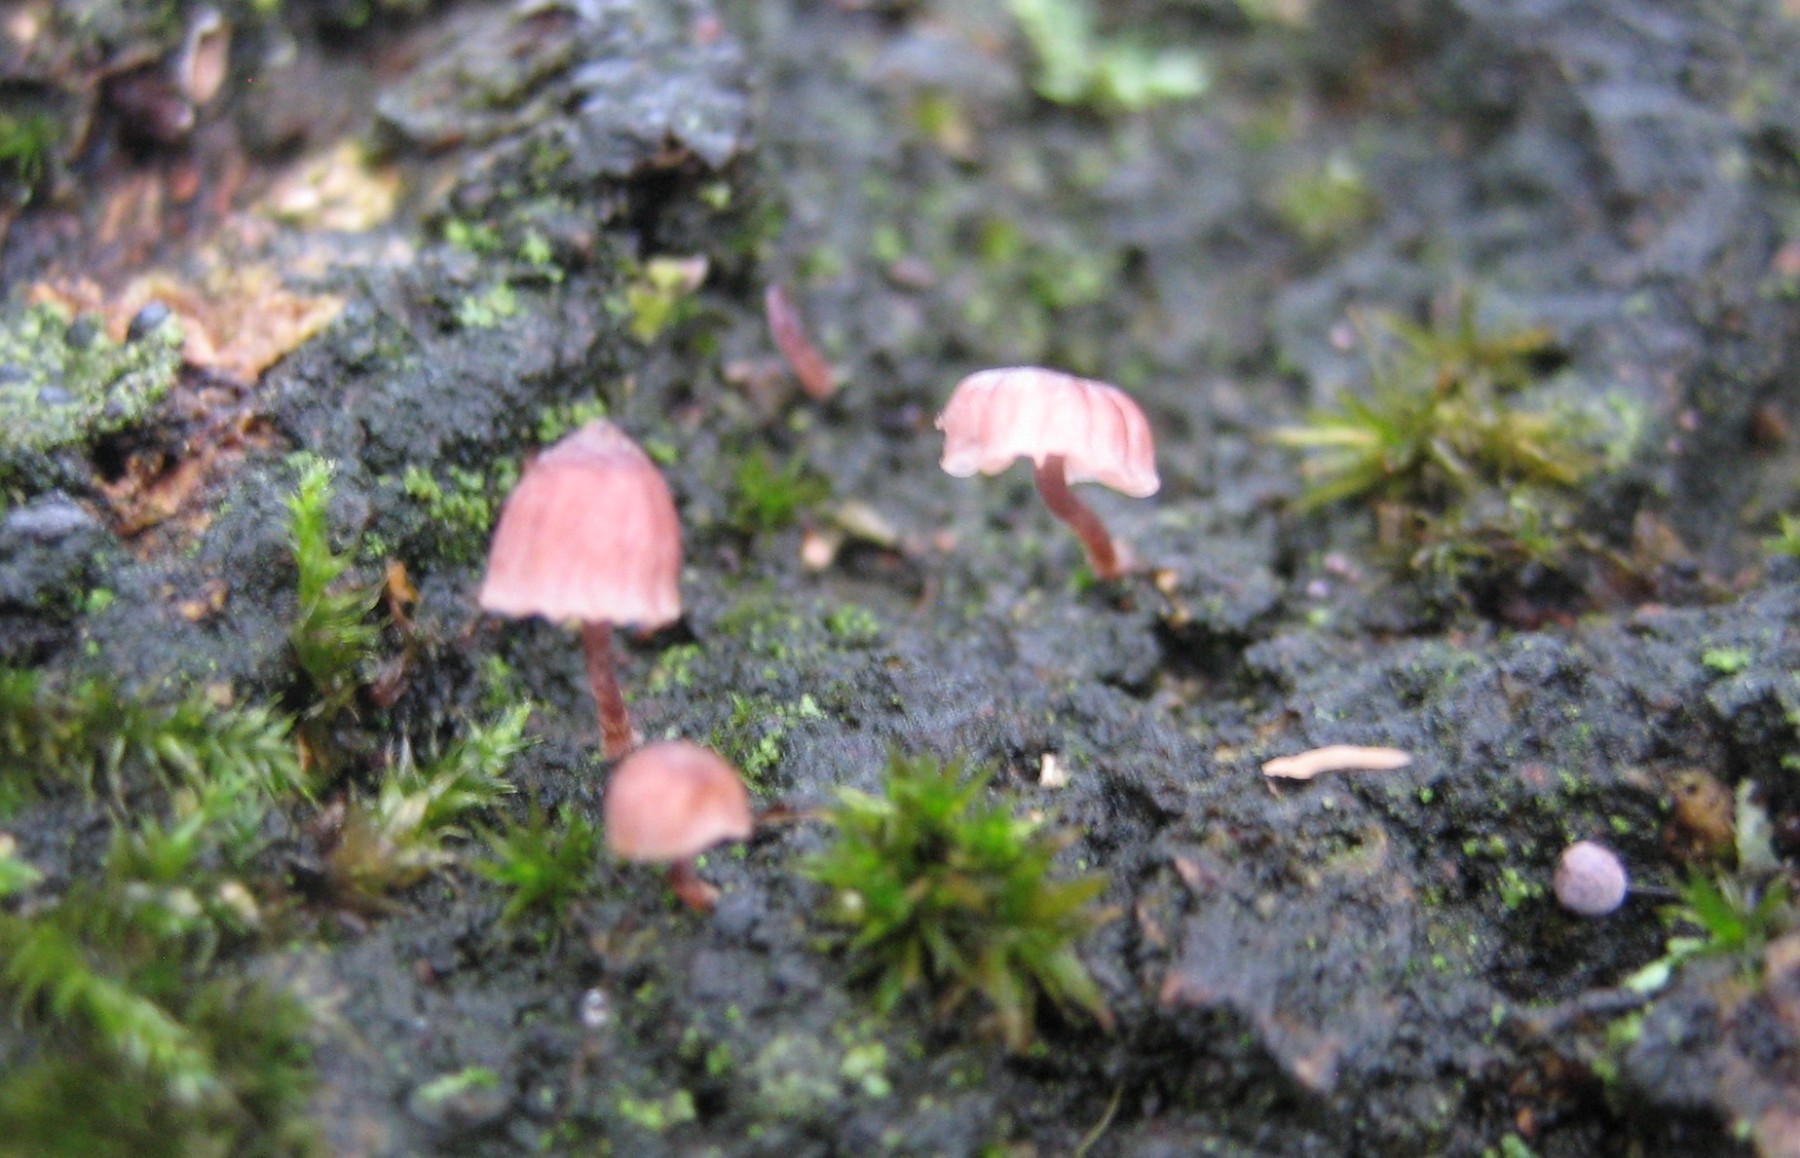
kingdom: Fungi
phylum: Basidiomycota
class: Agaricomycetes
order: Agaricales
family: Mycenaceae
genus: Mycena
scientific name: Mycena meliigena
